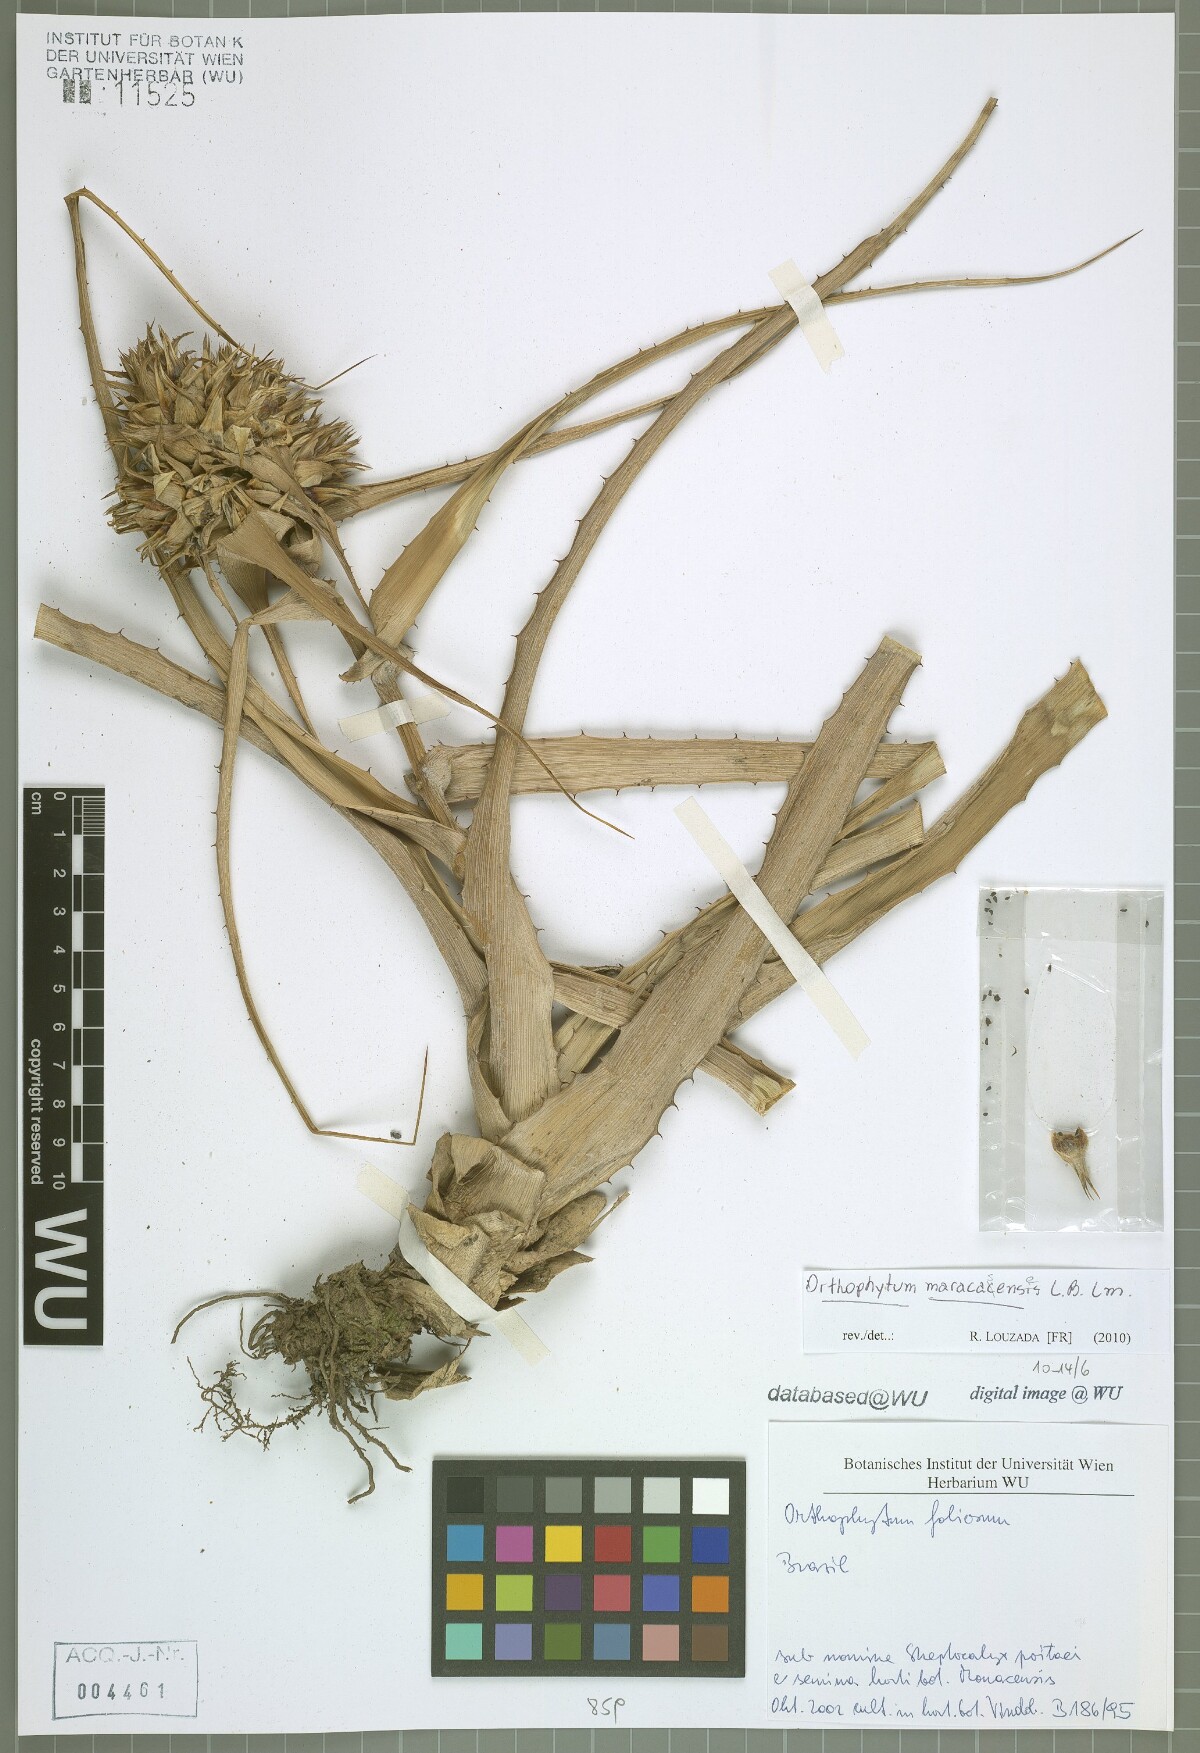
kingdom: Plantae
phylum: Tracheophyta
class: Liliopsida
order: Poales
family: Bromeliaceae
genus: Orthophytum
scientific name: Orthophytum maracasense
